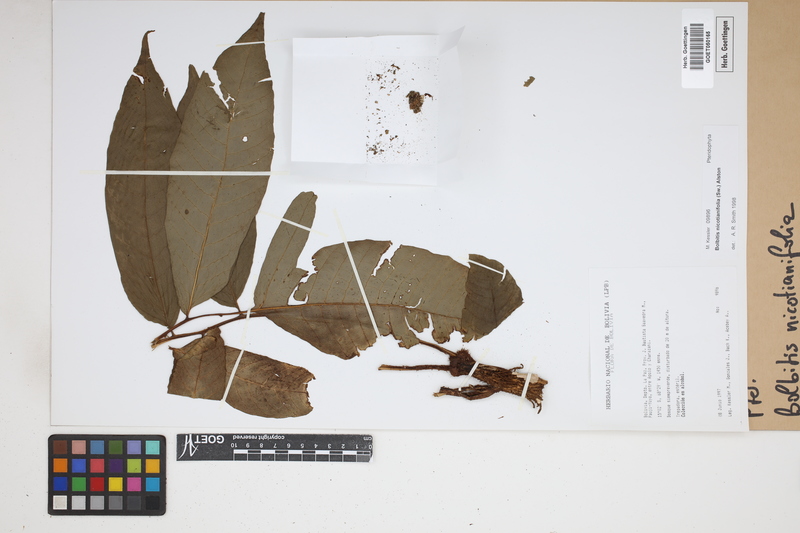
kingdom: Plantae
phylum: Tracheophyta
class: Polypodiopsida
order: Polypodiales
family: Dryopteridaceae
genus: Mickelia
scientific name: Mickelia nicotianifolia
